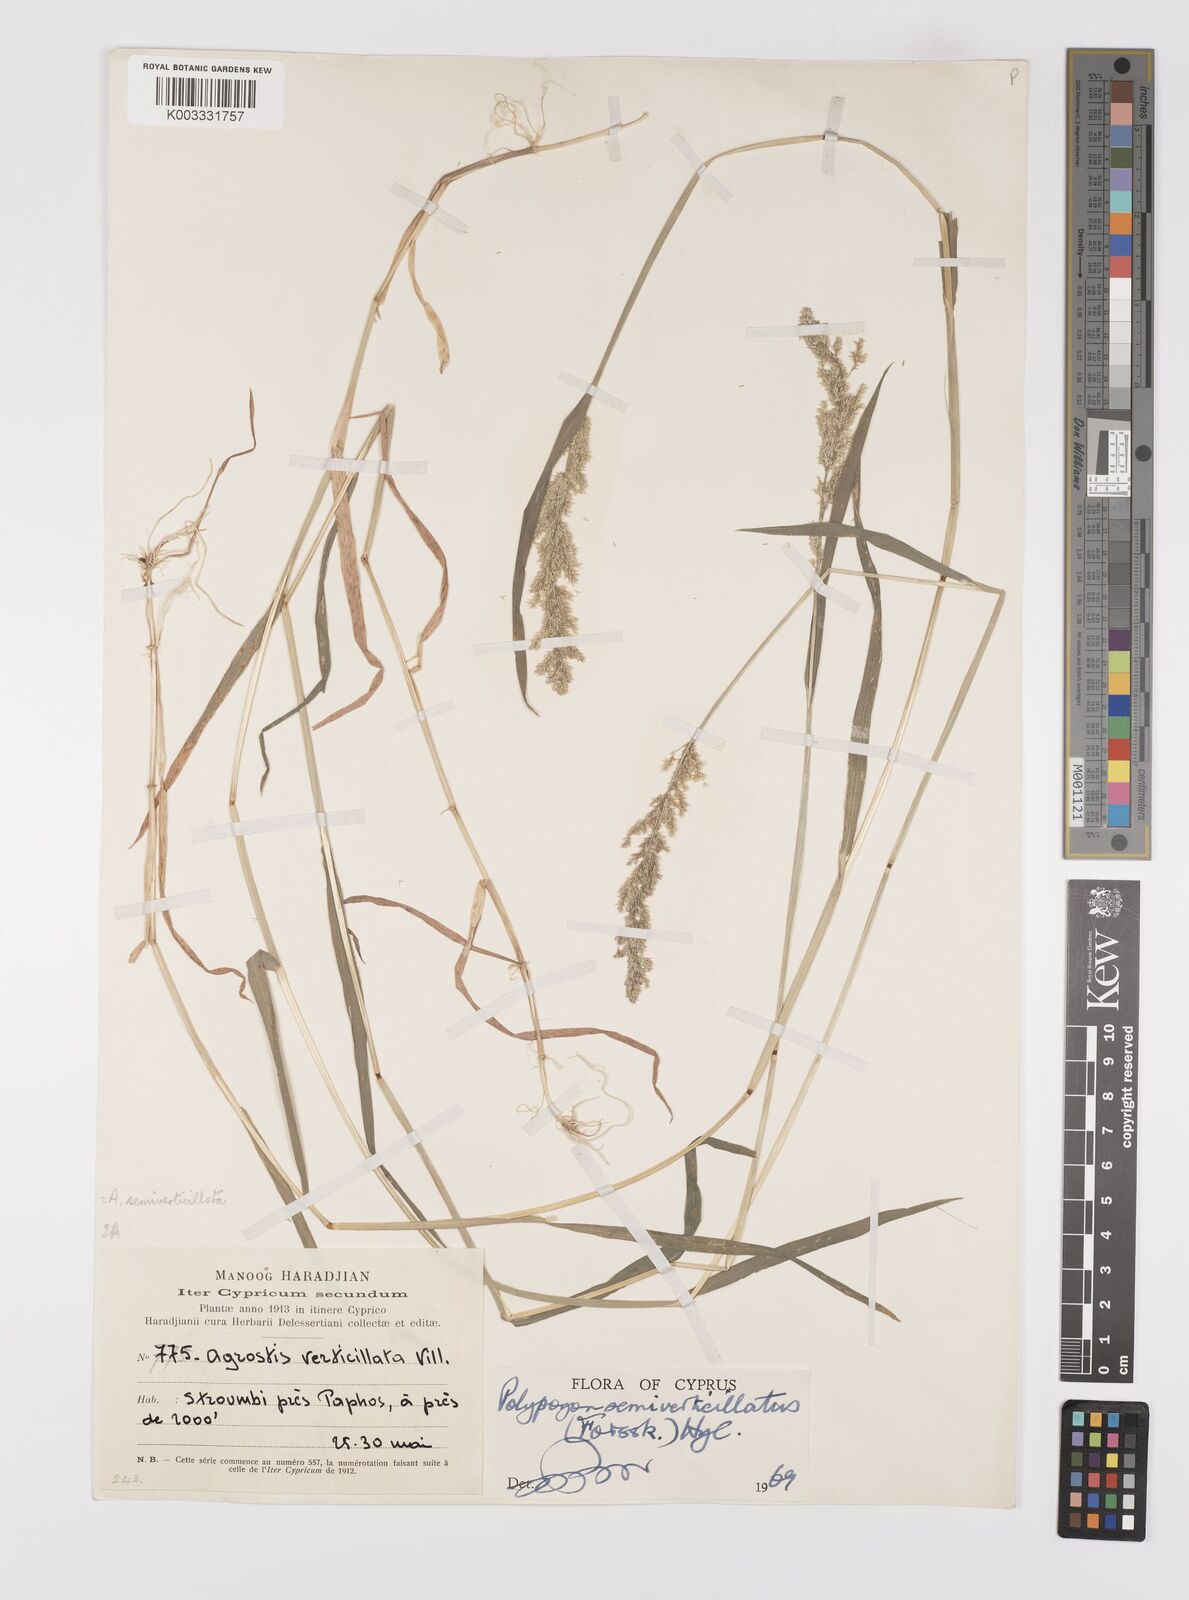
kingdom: Plantae
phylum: Tracheophyta
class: Liliopsida
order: Poales
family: Poaceae
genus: Polypogon
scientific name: Polypogon viridis
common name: Water bent
